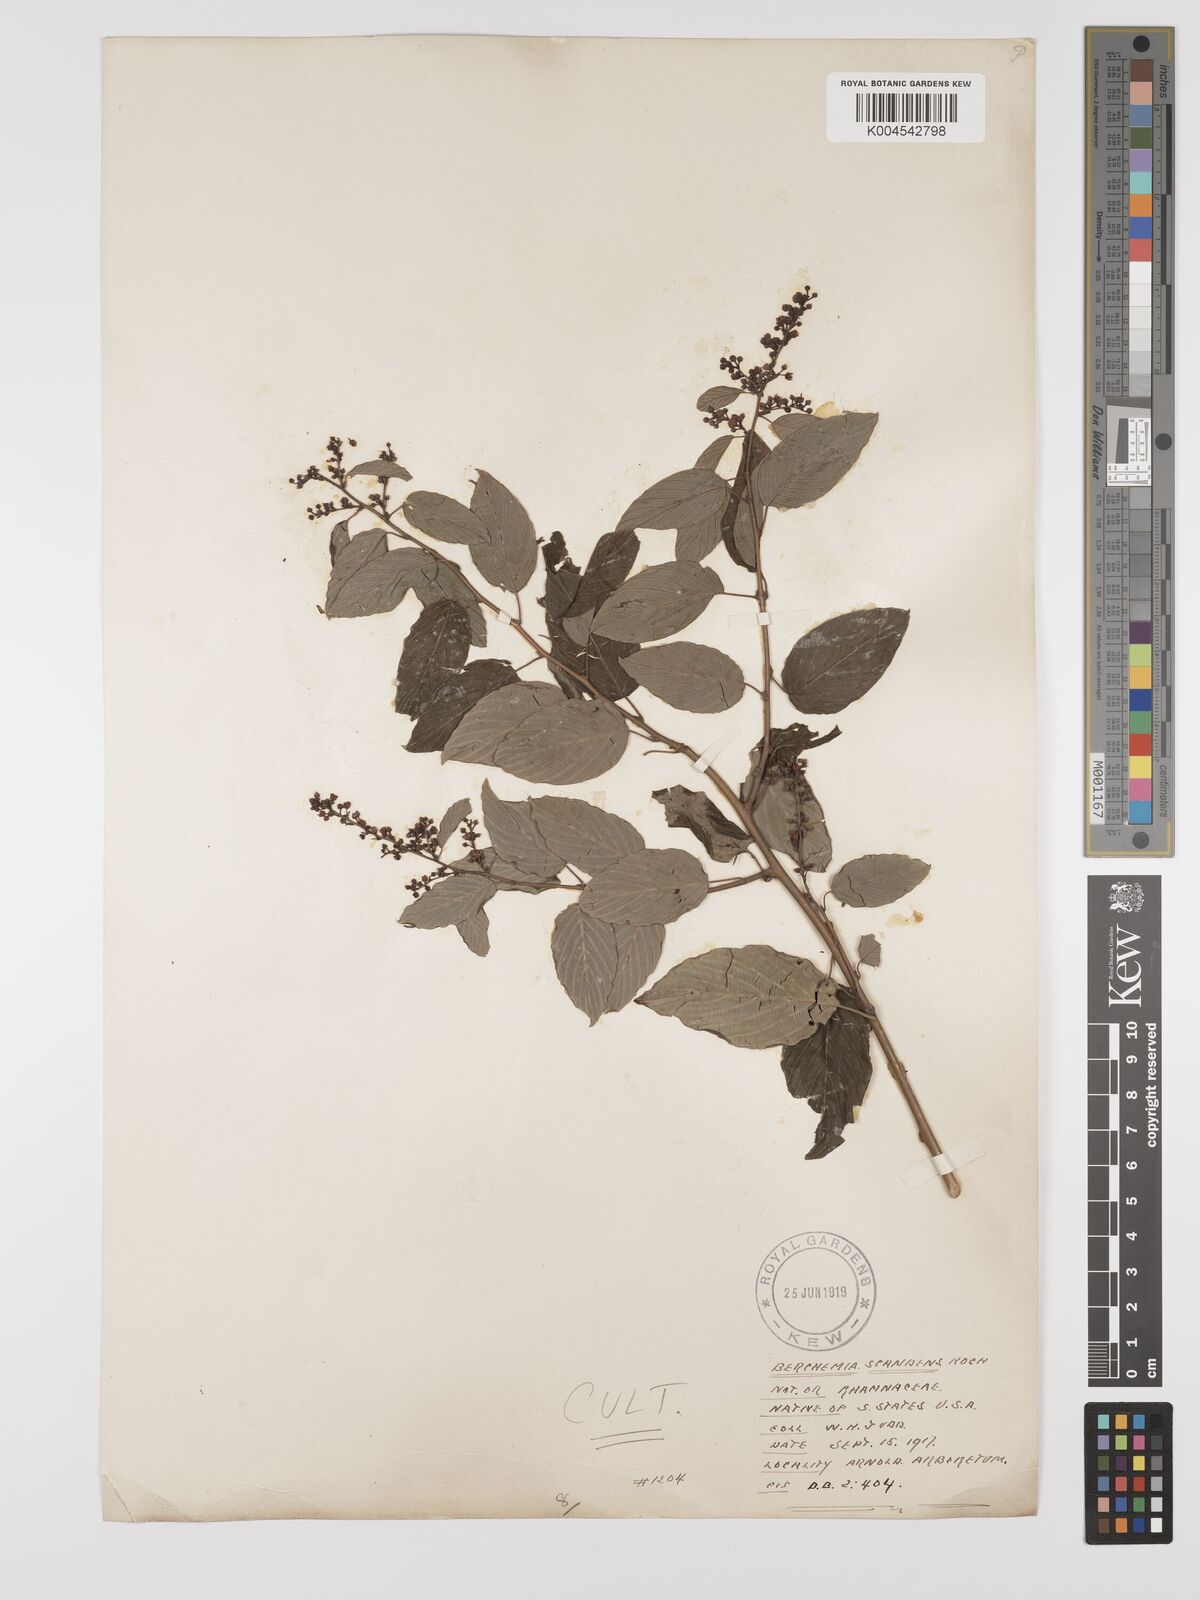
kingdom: Plantae
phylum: Tracheophyta
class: Magnoliopsida
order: Rosales
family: Rhamnaceae
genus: Berchemia
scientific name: Berchemia scandens
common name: Supplejack
